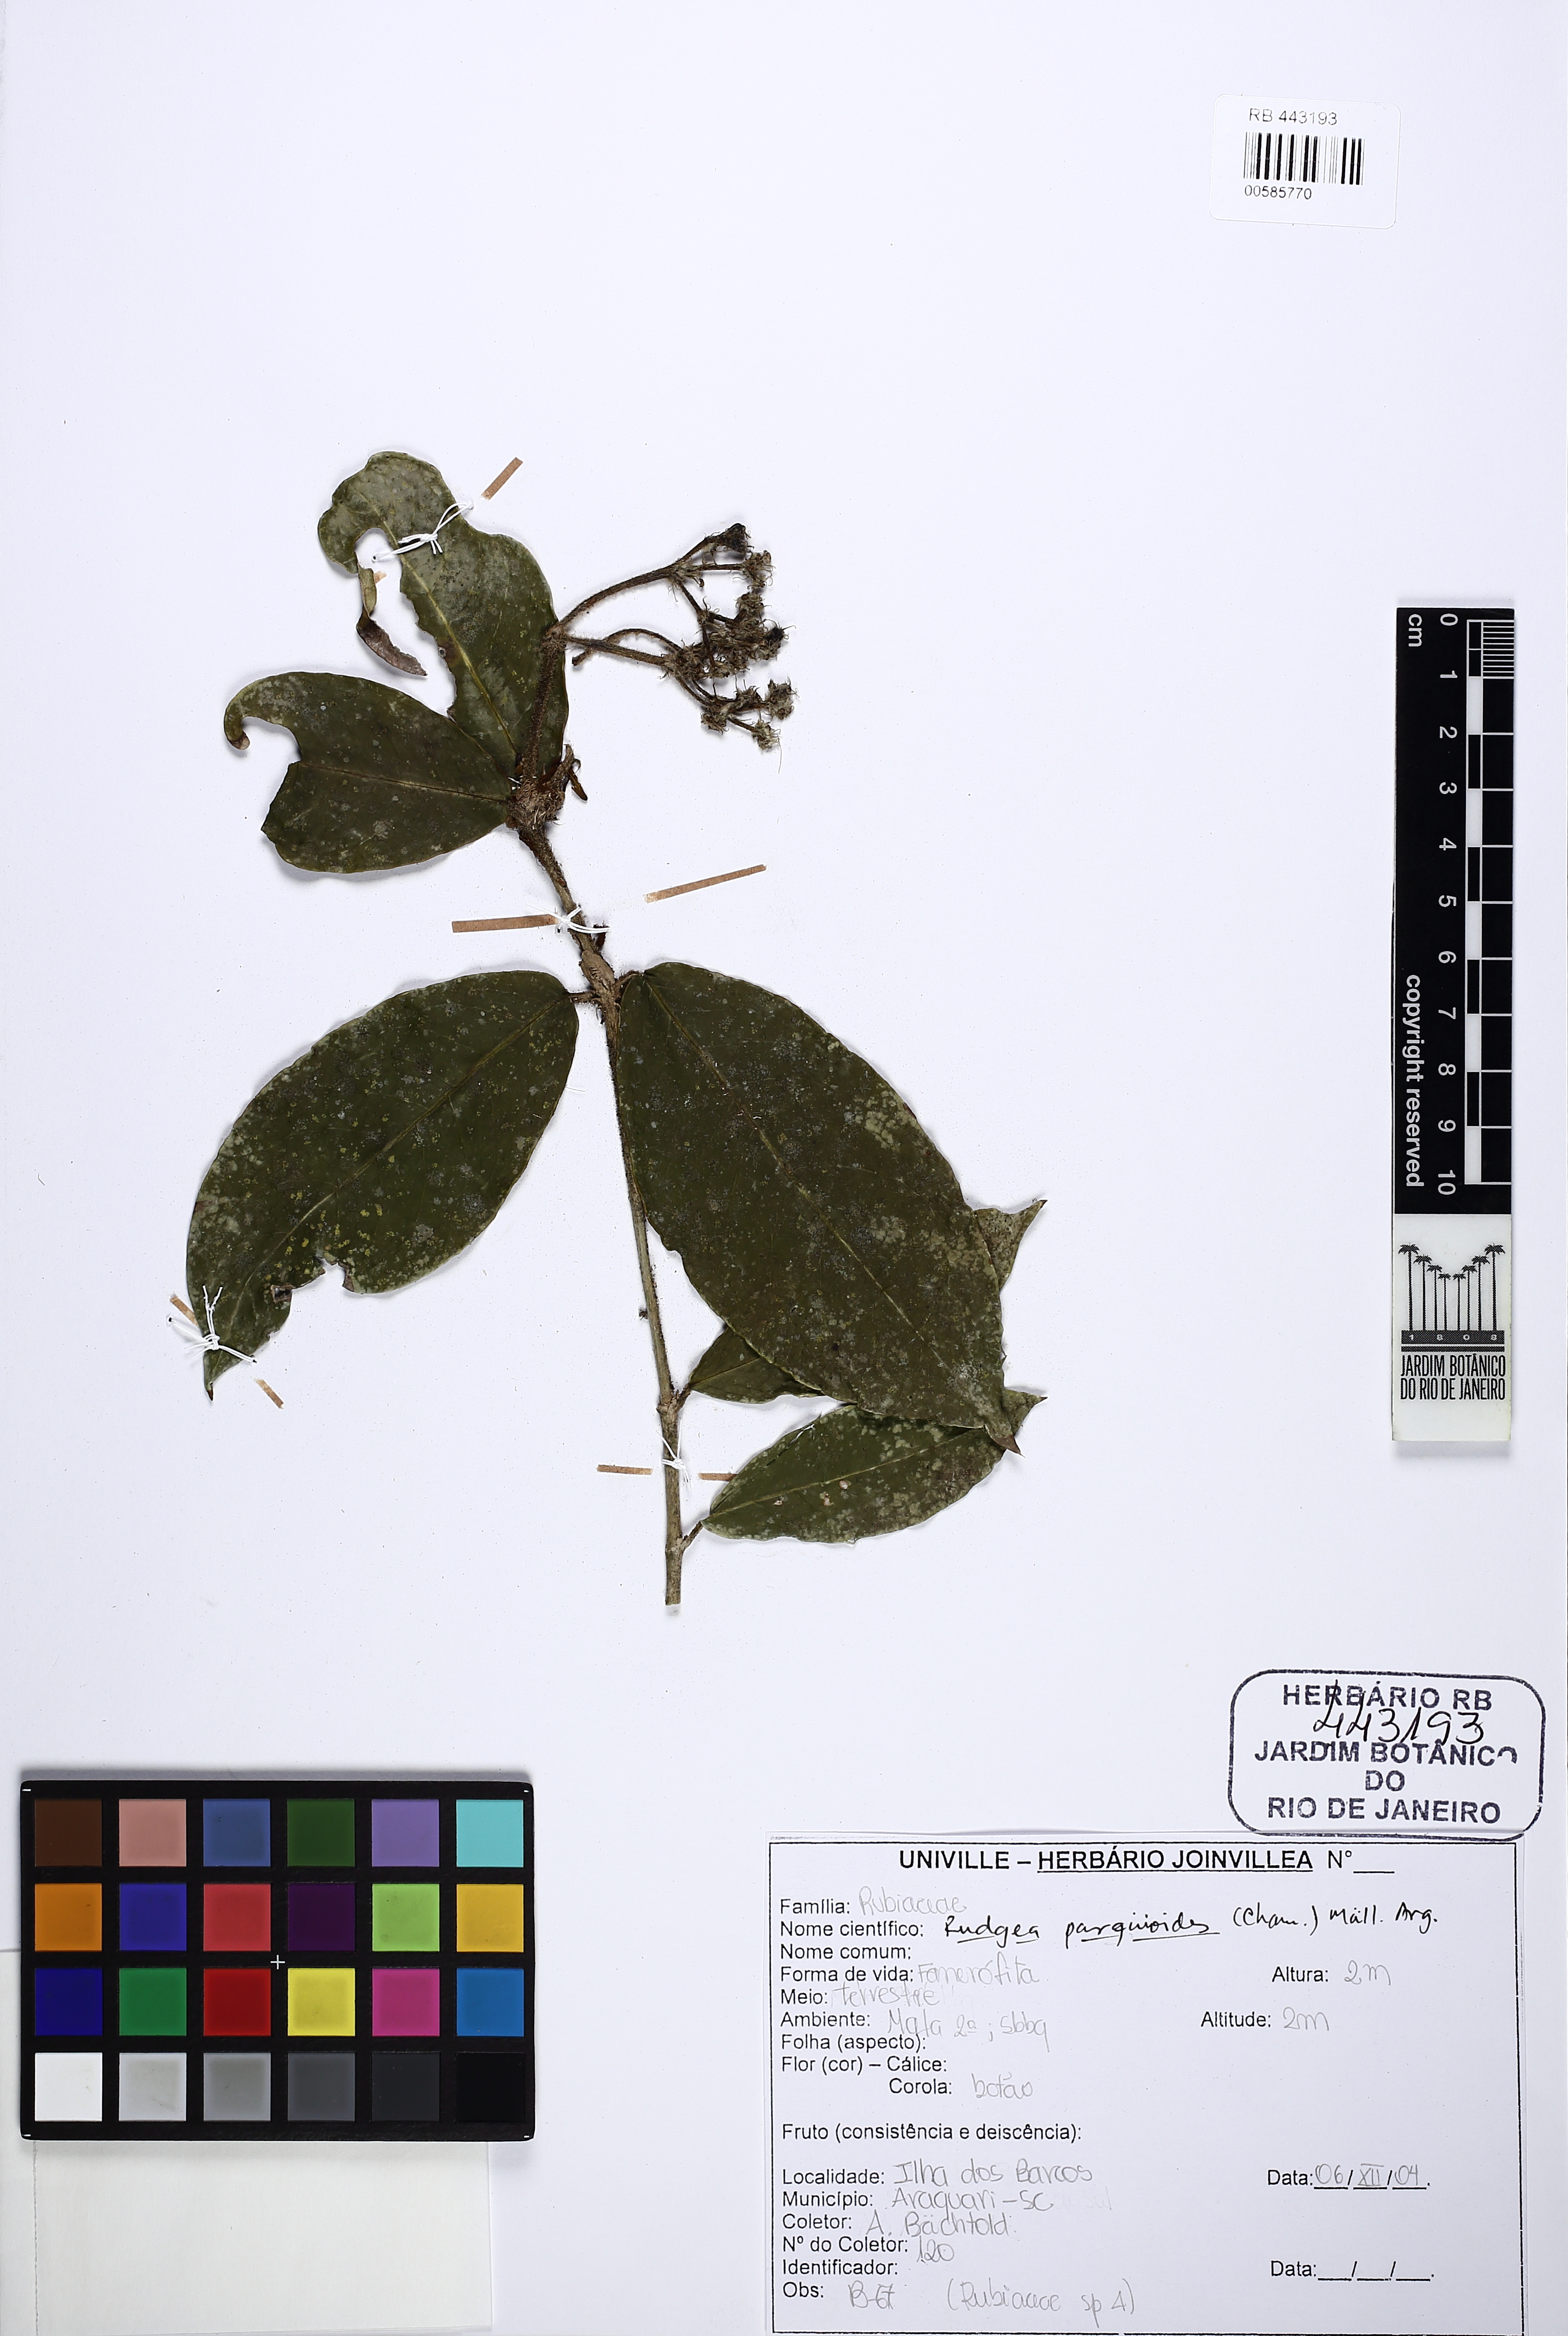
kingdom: Plantae
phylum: Tracheophyta
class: Magnoliopsida
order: Gentianales
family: Rubiaceae
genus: Rudgea
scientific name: Rudgea parquioides
